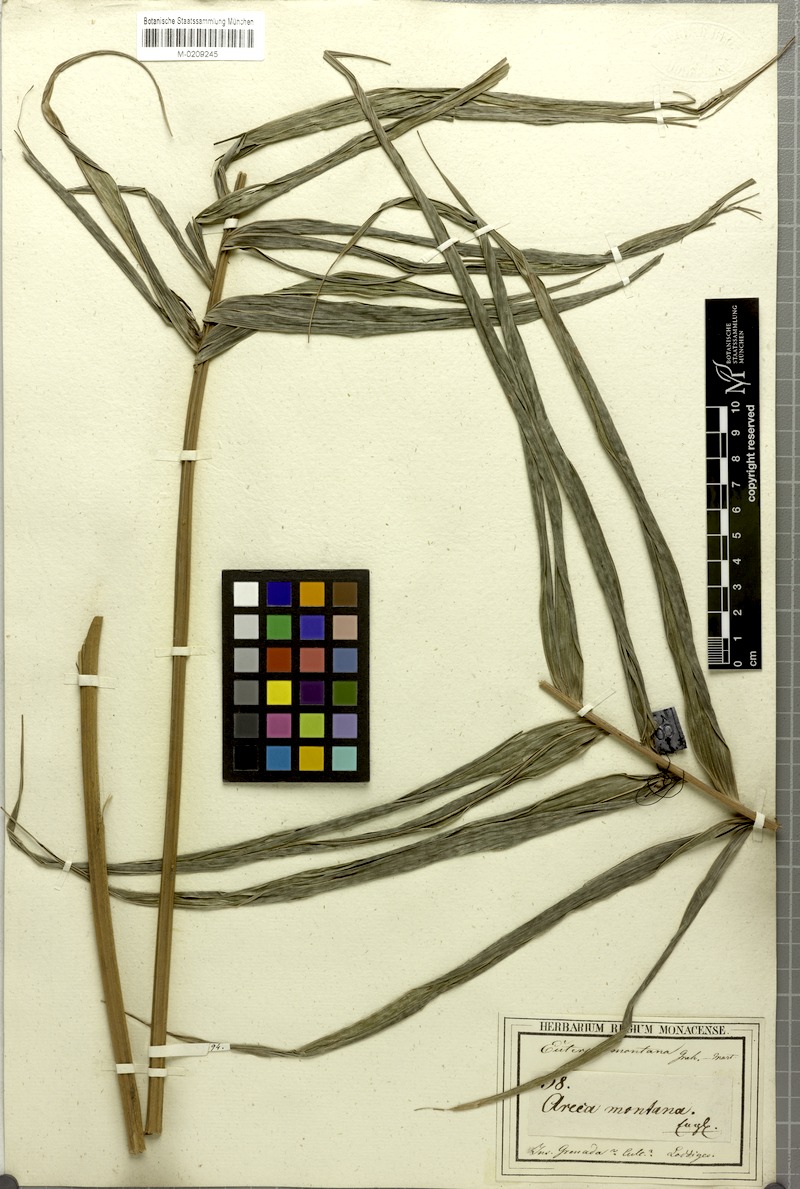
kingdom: Plantae
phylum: Tracheophyta
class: Liliopsida
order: Arecales
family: Arecaceae
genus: Prestoea
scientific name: Prestoea acuminata
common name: Sierran palm
